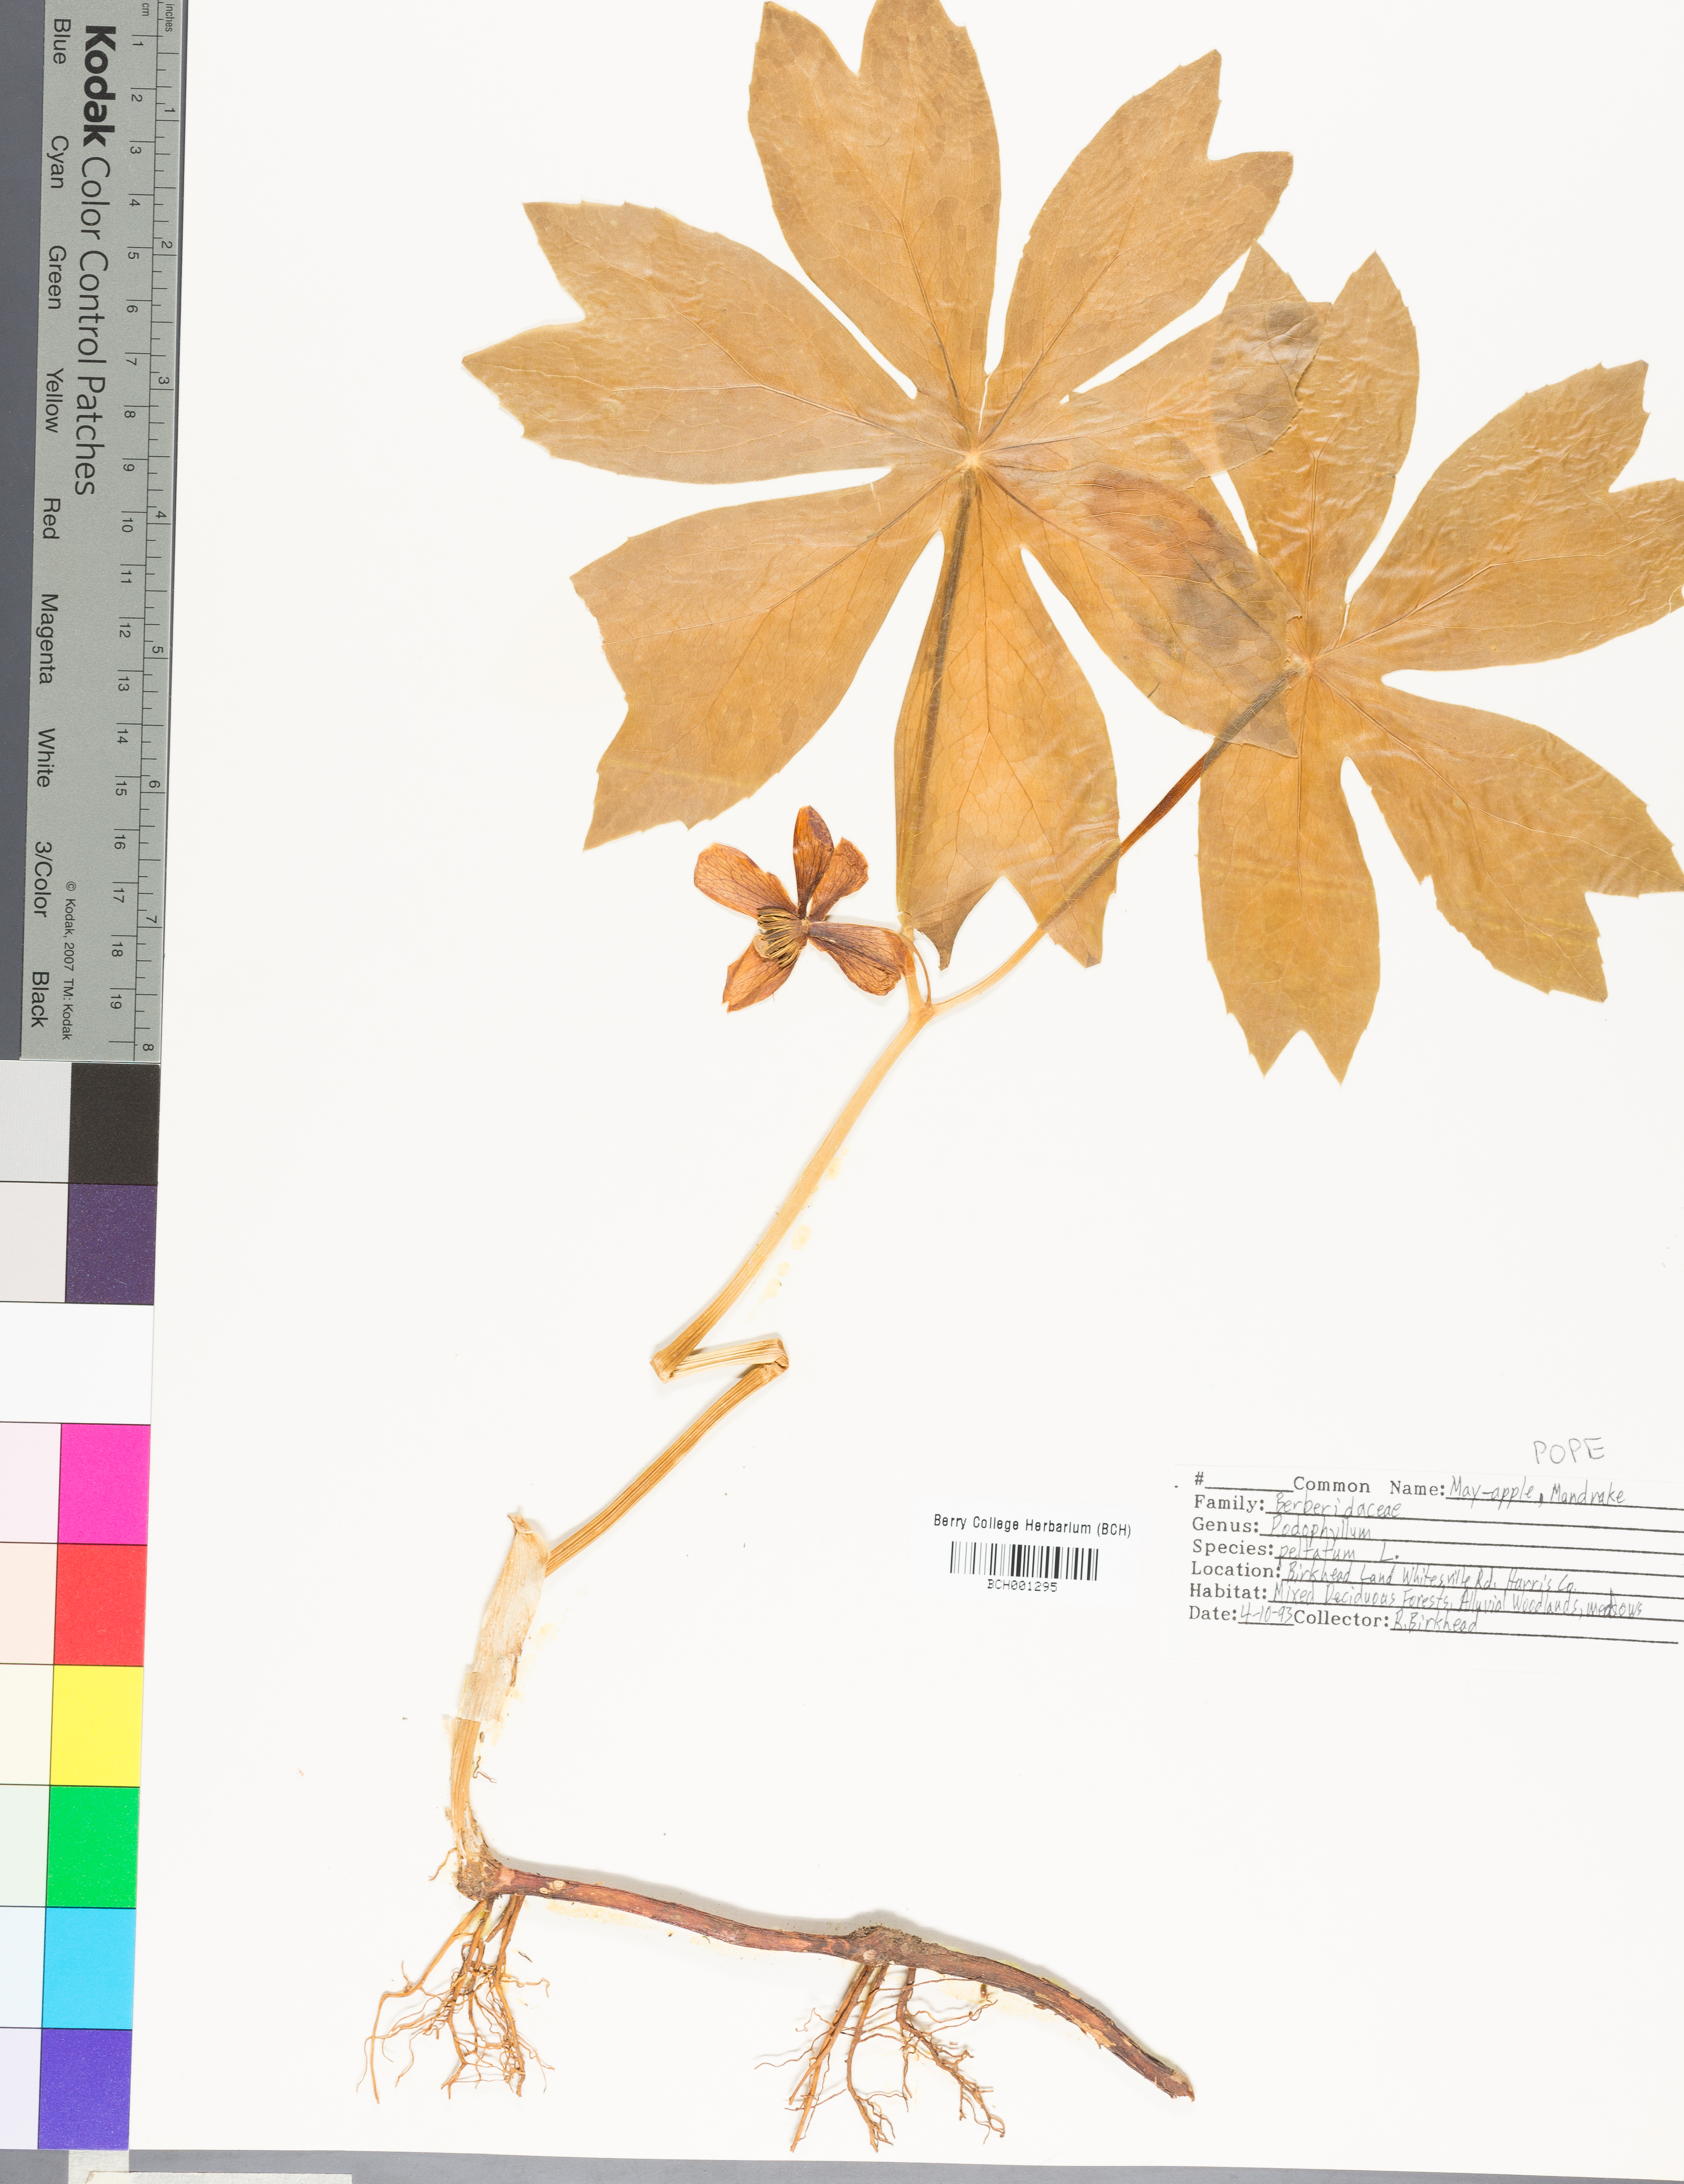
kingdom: Plantae
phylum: Tracheophyta
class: Magnoliopsida
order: Ranunculales
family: Berberidaceae
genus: Podophyllum
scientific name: Podophyllum peltatum
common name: Wild mandrake
